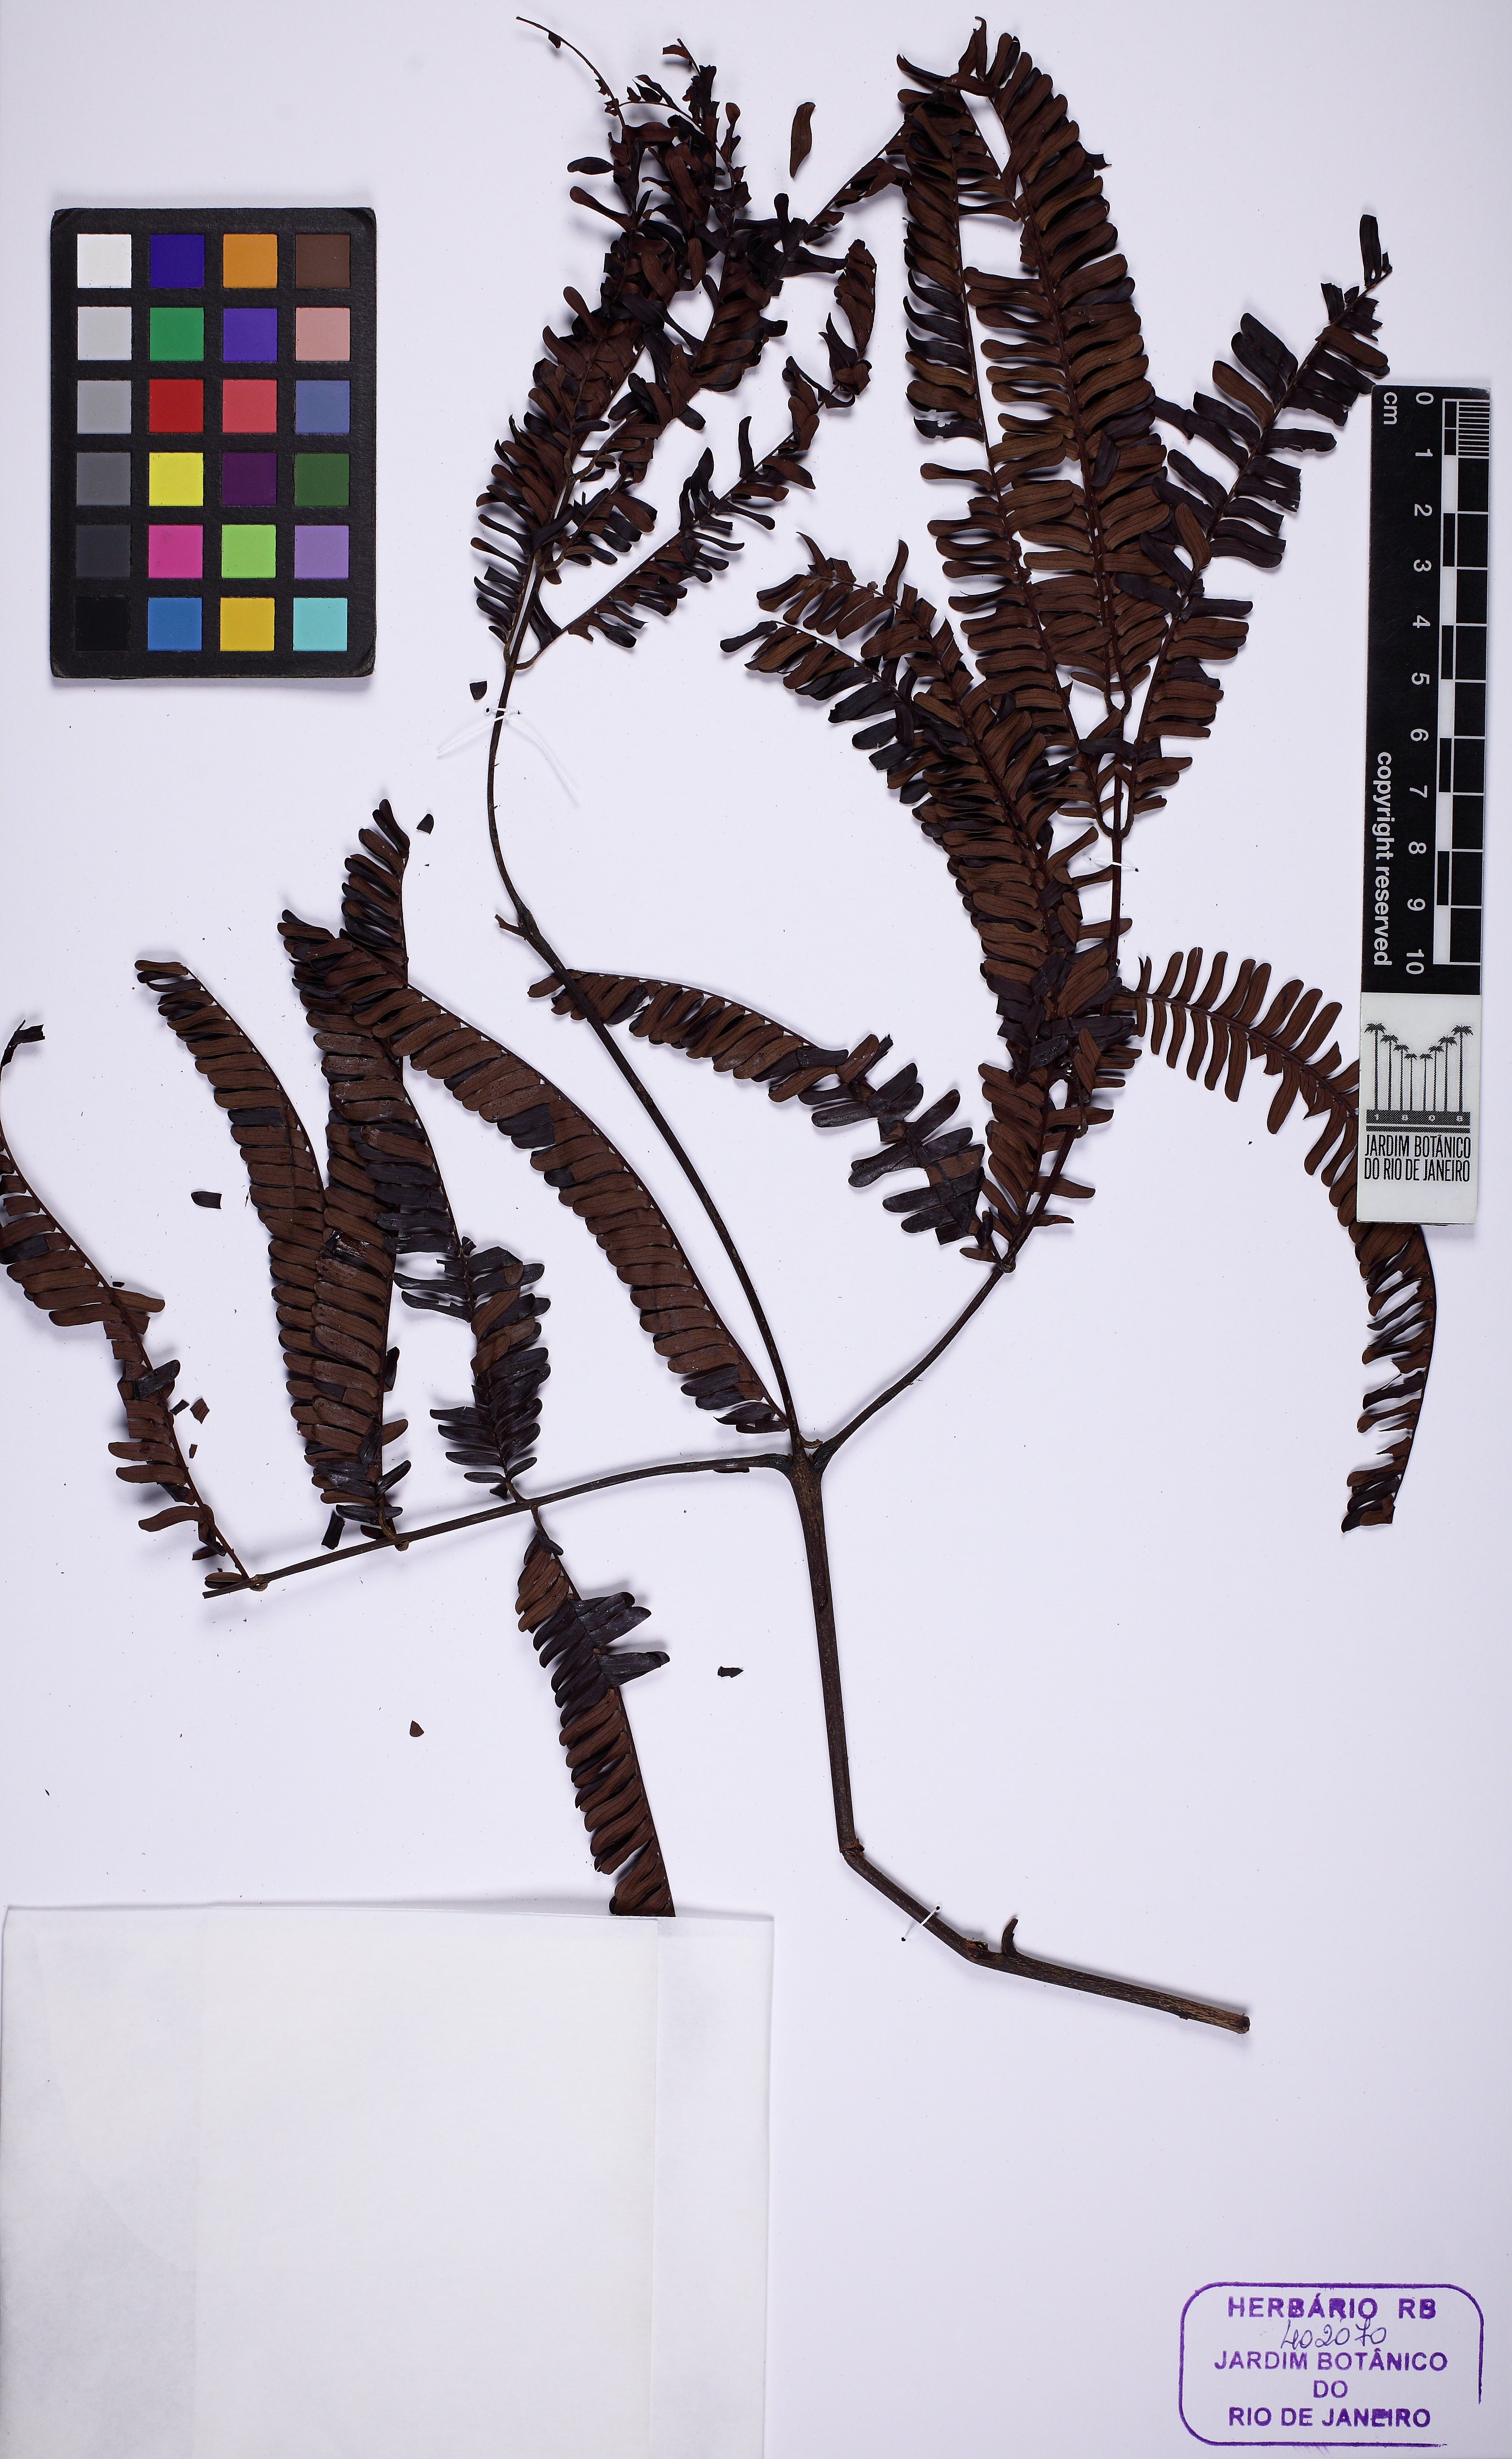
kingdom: Plantae
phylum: Tracheophyta
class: Magnoliopsida
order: Fabales
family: Fabaceae
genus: Parkia
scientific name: Parkia
